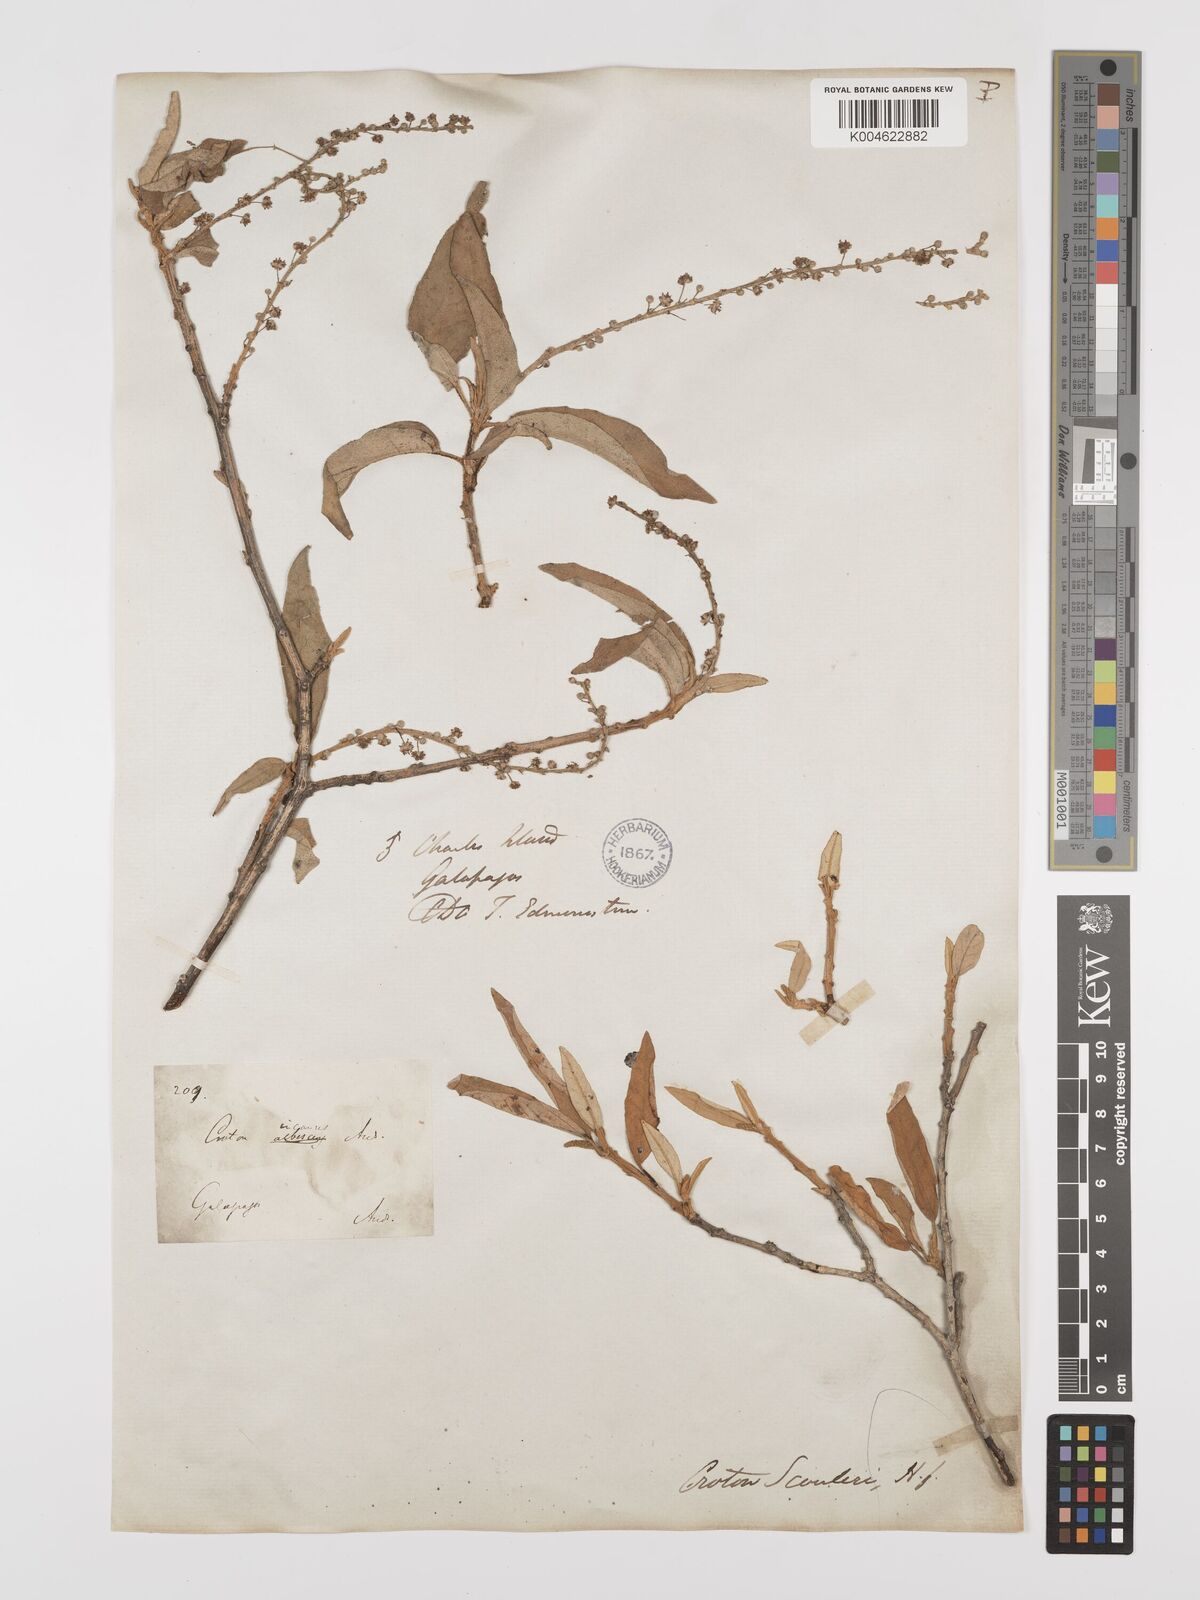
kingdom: Plantae
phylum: Tracheophyta
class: Magnoliopsida
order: Malpighiales
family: Euphorbiaceae
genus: Croton
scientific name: Croton scouleri
